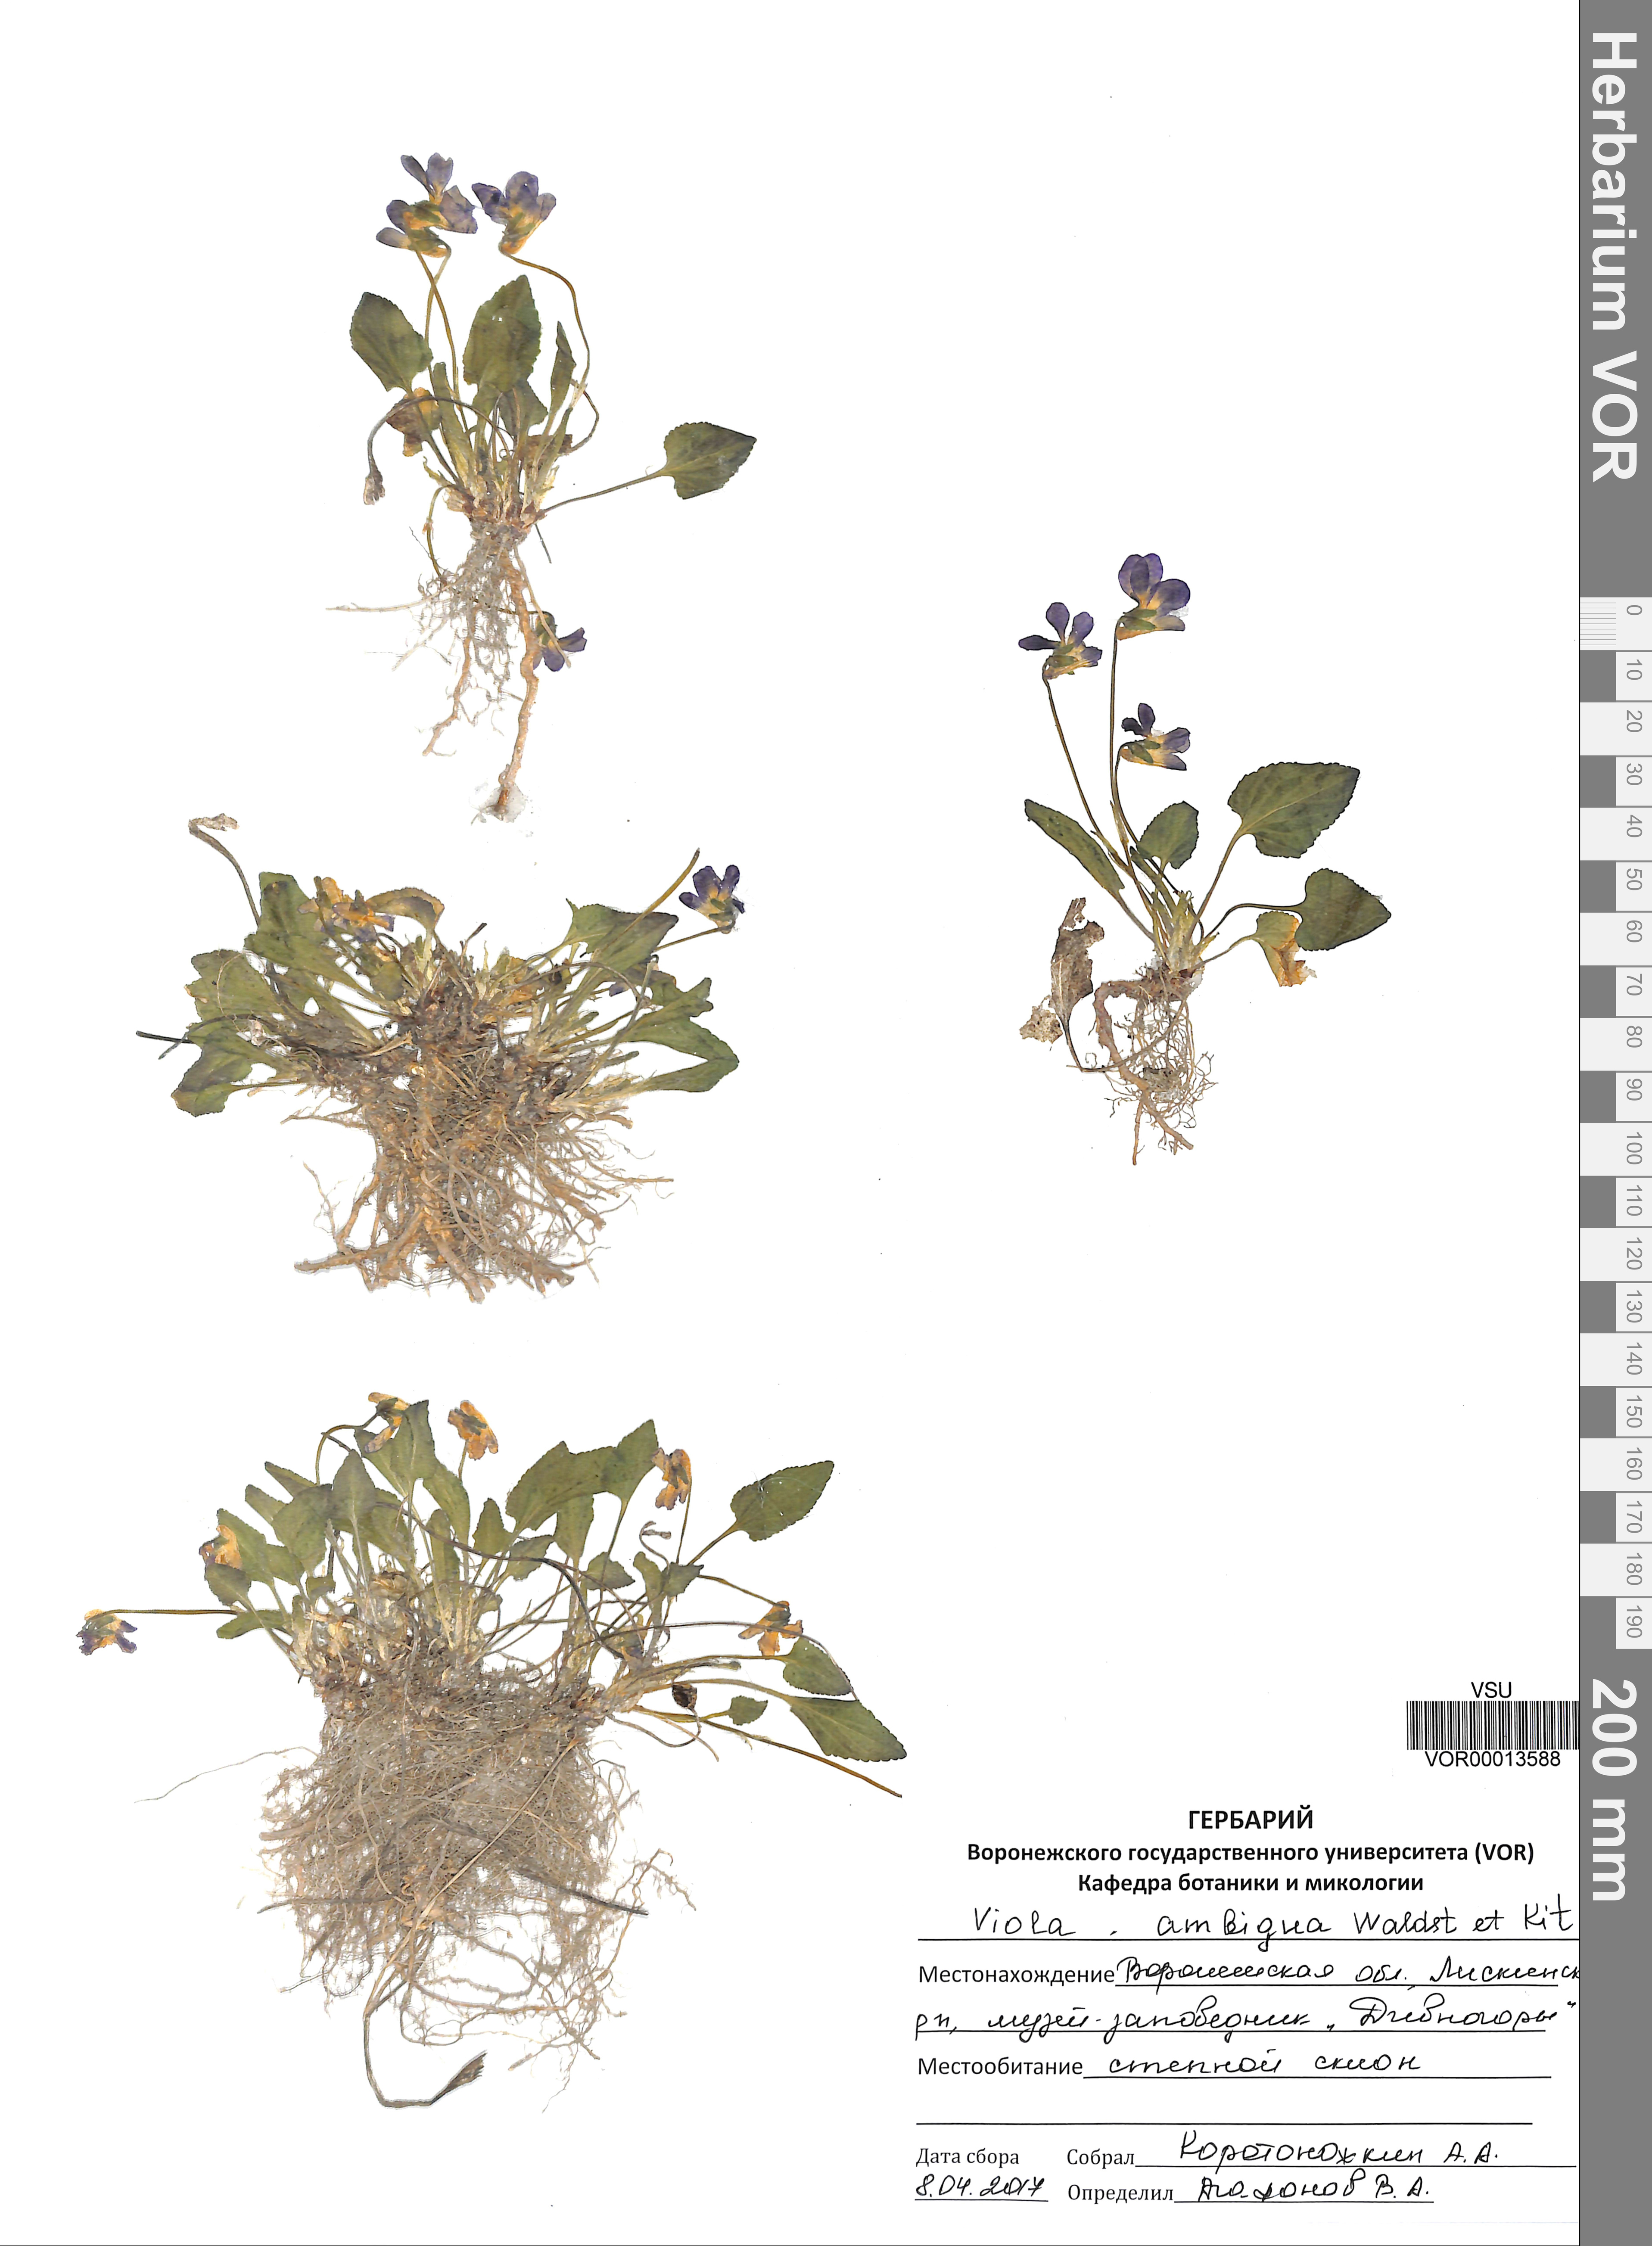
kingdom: Plantae
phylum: Tracheophyta
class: Magnoliopsida
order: Malpighiales
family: Violaceae
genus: Viola
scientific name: Viola ambigua
